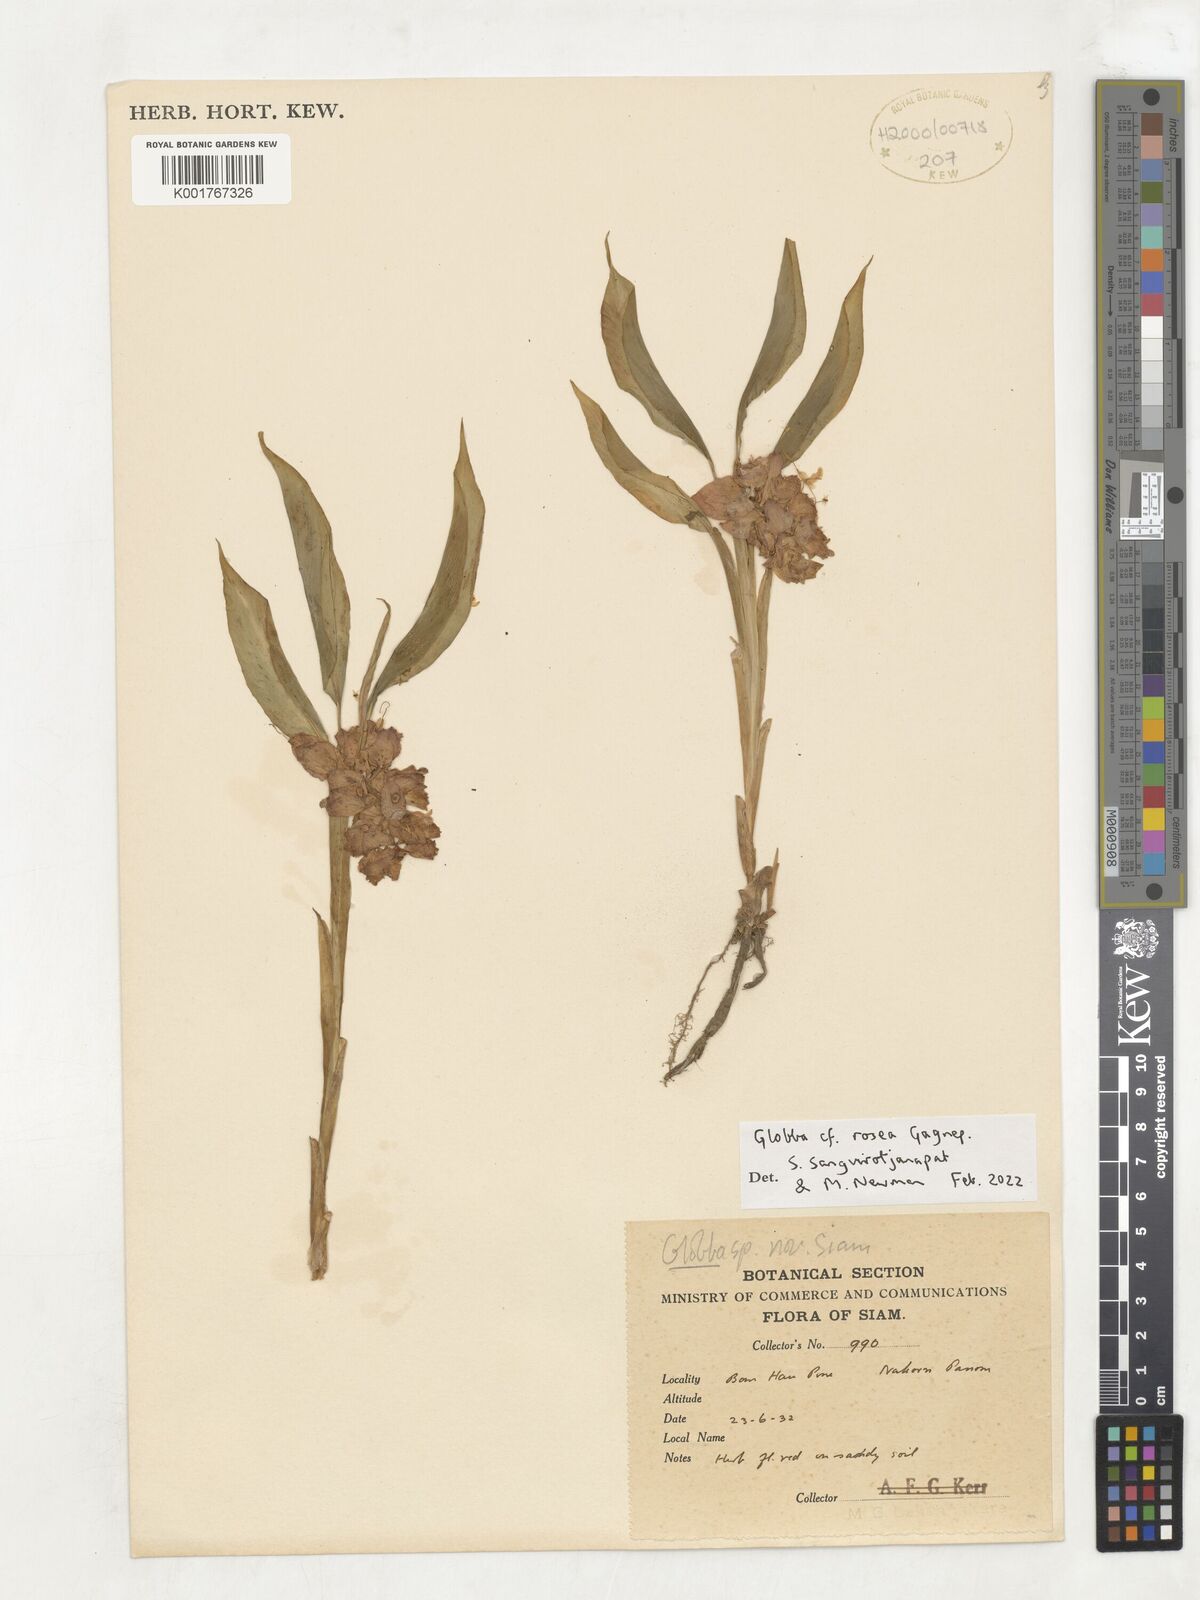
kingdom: Plantae
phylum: Tracheophyta
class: Liliopsida
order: Zingiberales
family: Zingiberaceae
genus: Globba
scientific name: Globba rosea
